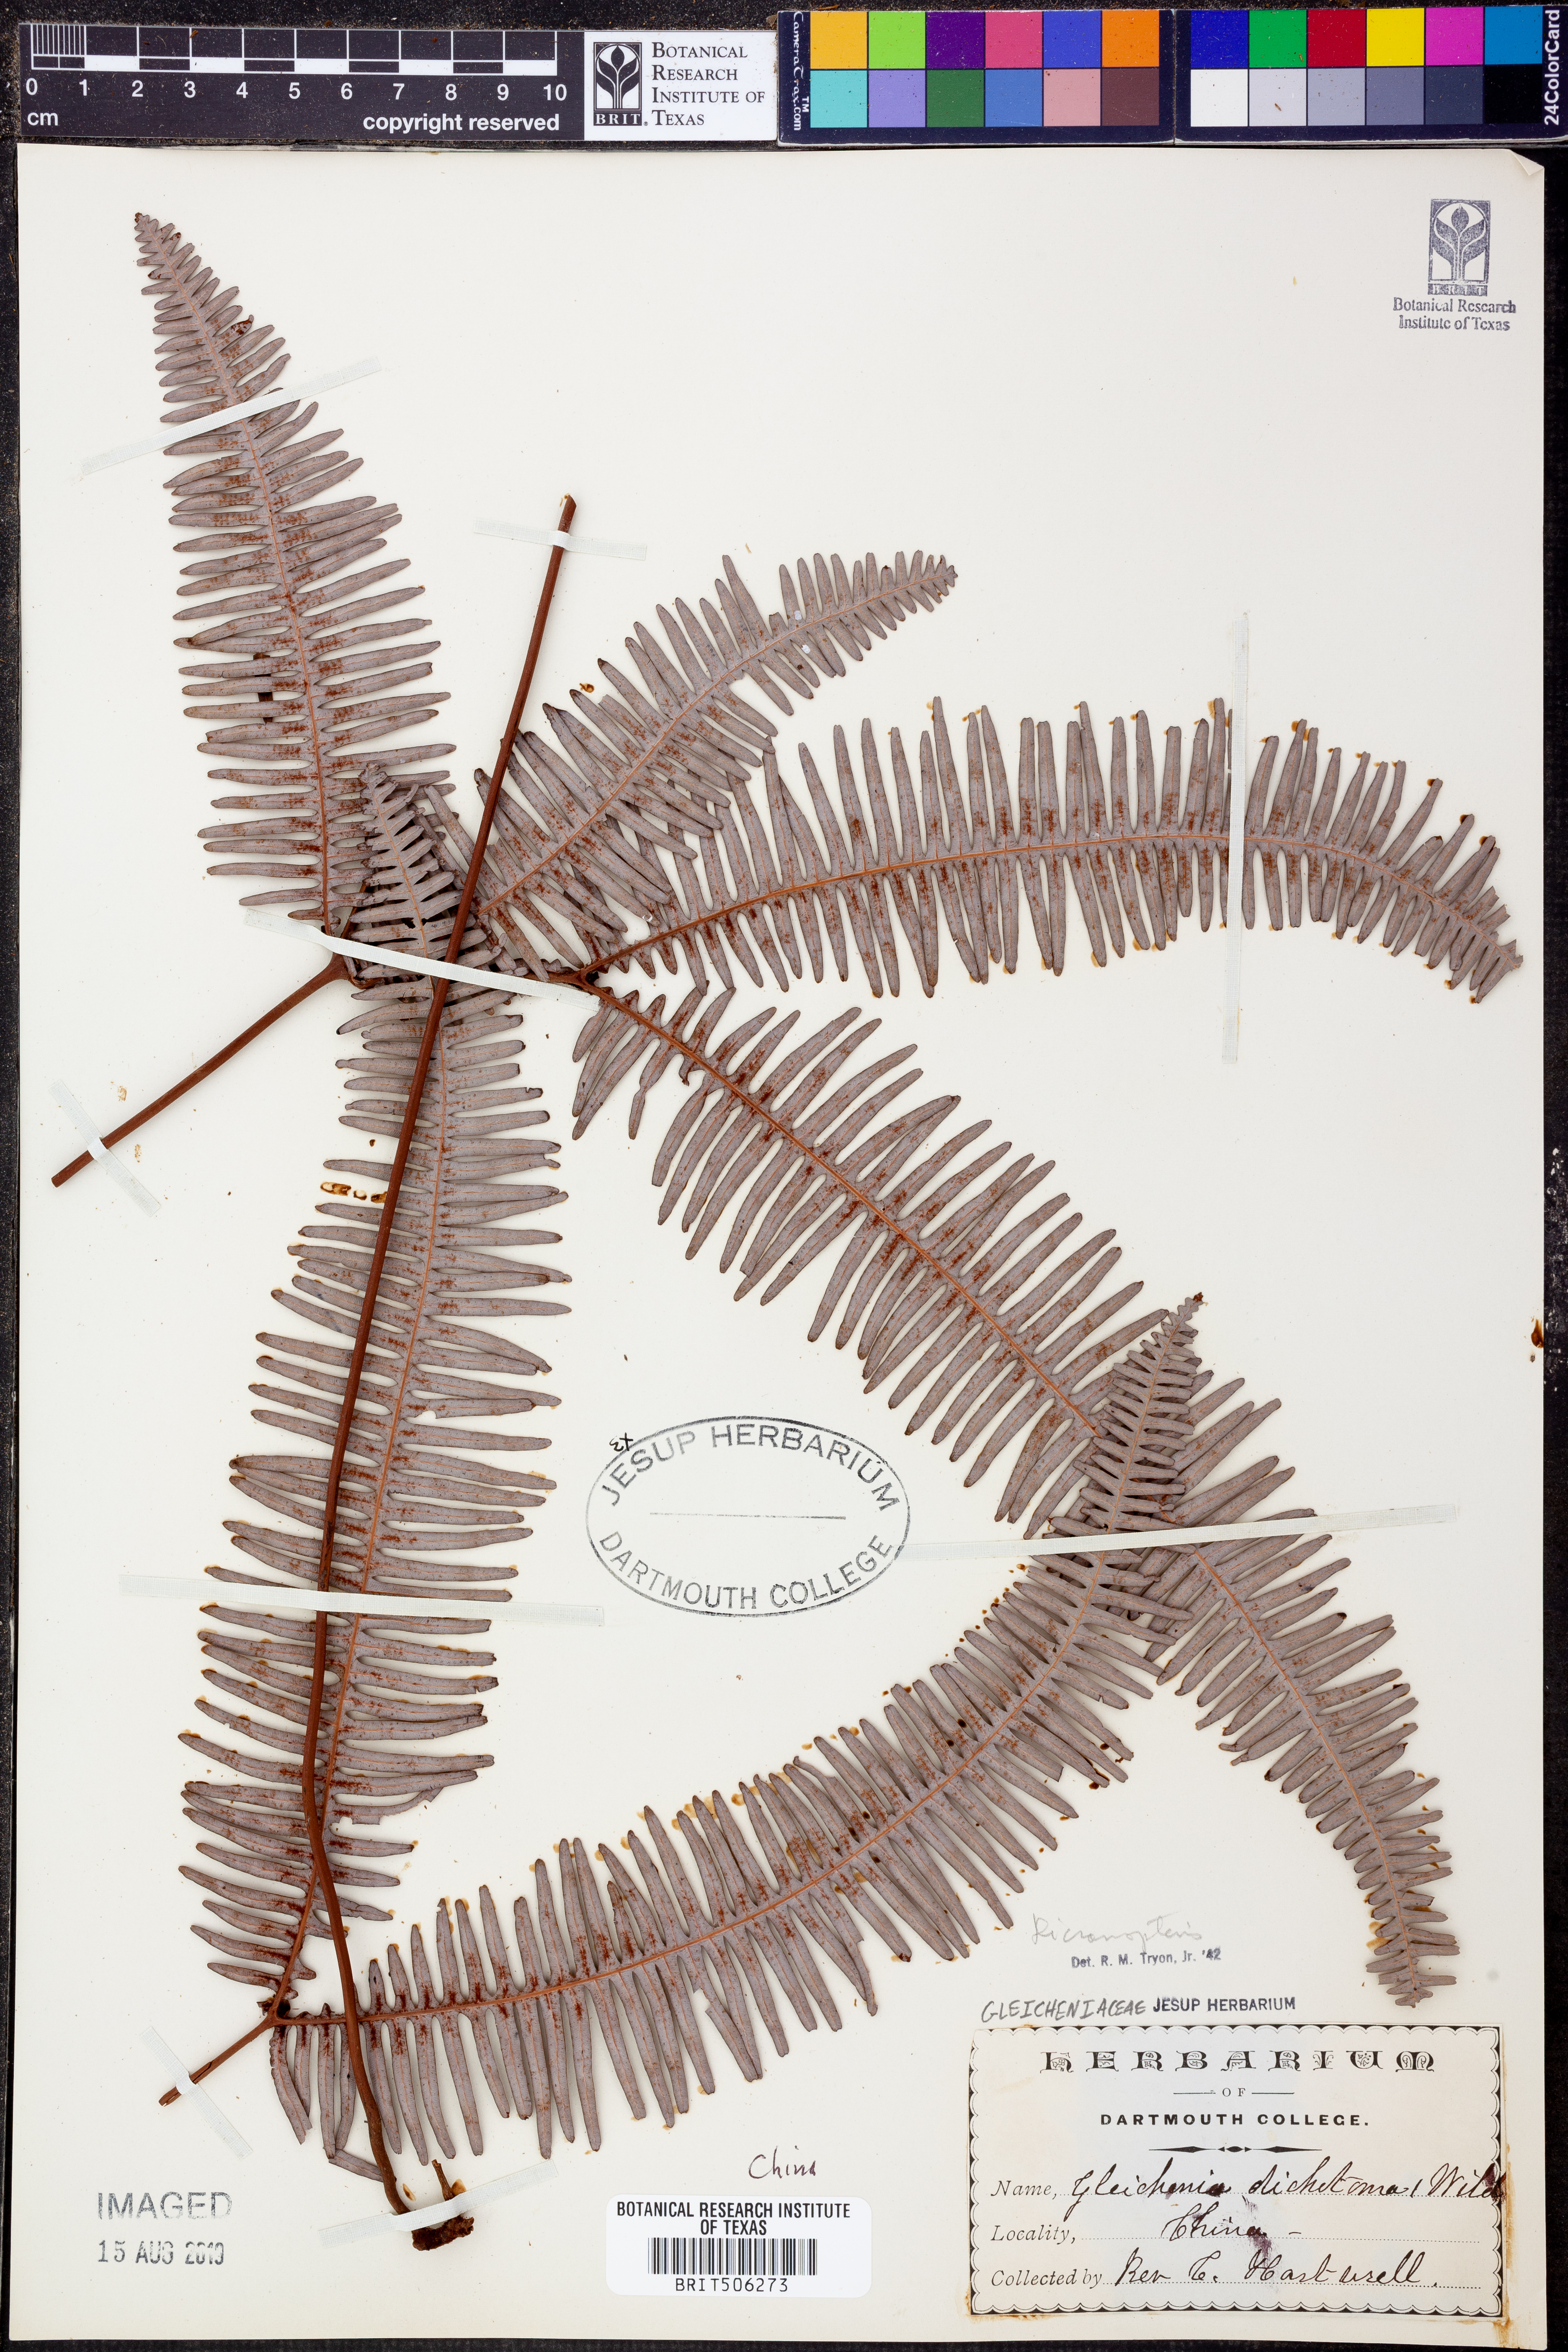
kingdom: Plantae
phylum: Tracheophyta
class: Polypodiopsida
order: Gleicheniales
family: Gleicheniaceae
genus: Dicranopteris
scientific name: Dicranopteris
